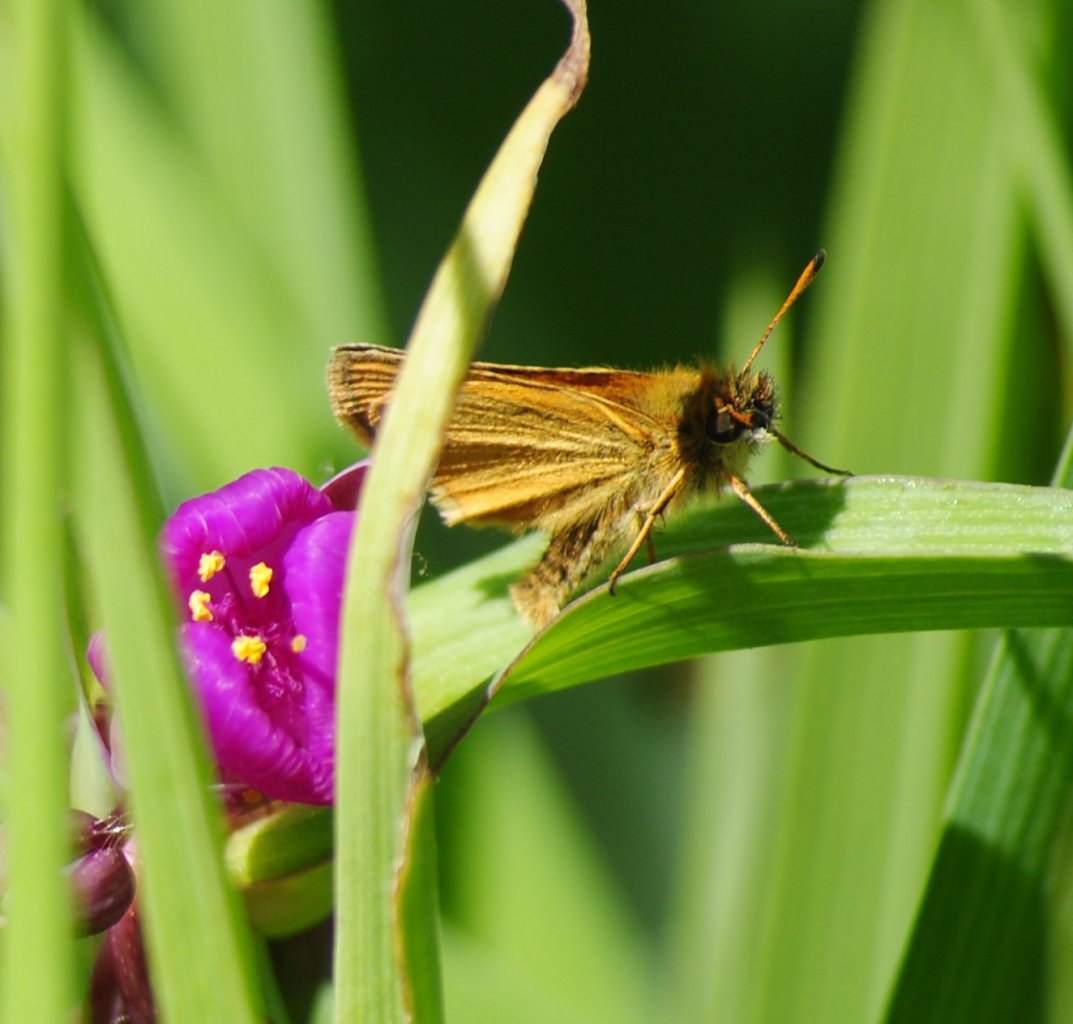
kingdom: Animalia
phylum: Arthropoda
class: Insecta
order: Lepidoptera
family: Hesperiidae
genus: Thymelicus
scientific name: Thymelicus lineola
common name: European Skipper
